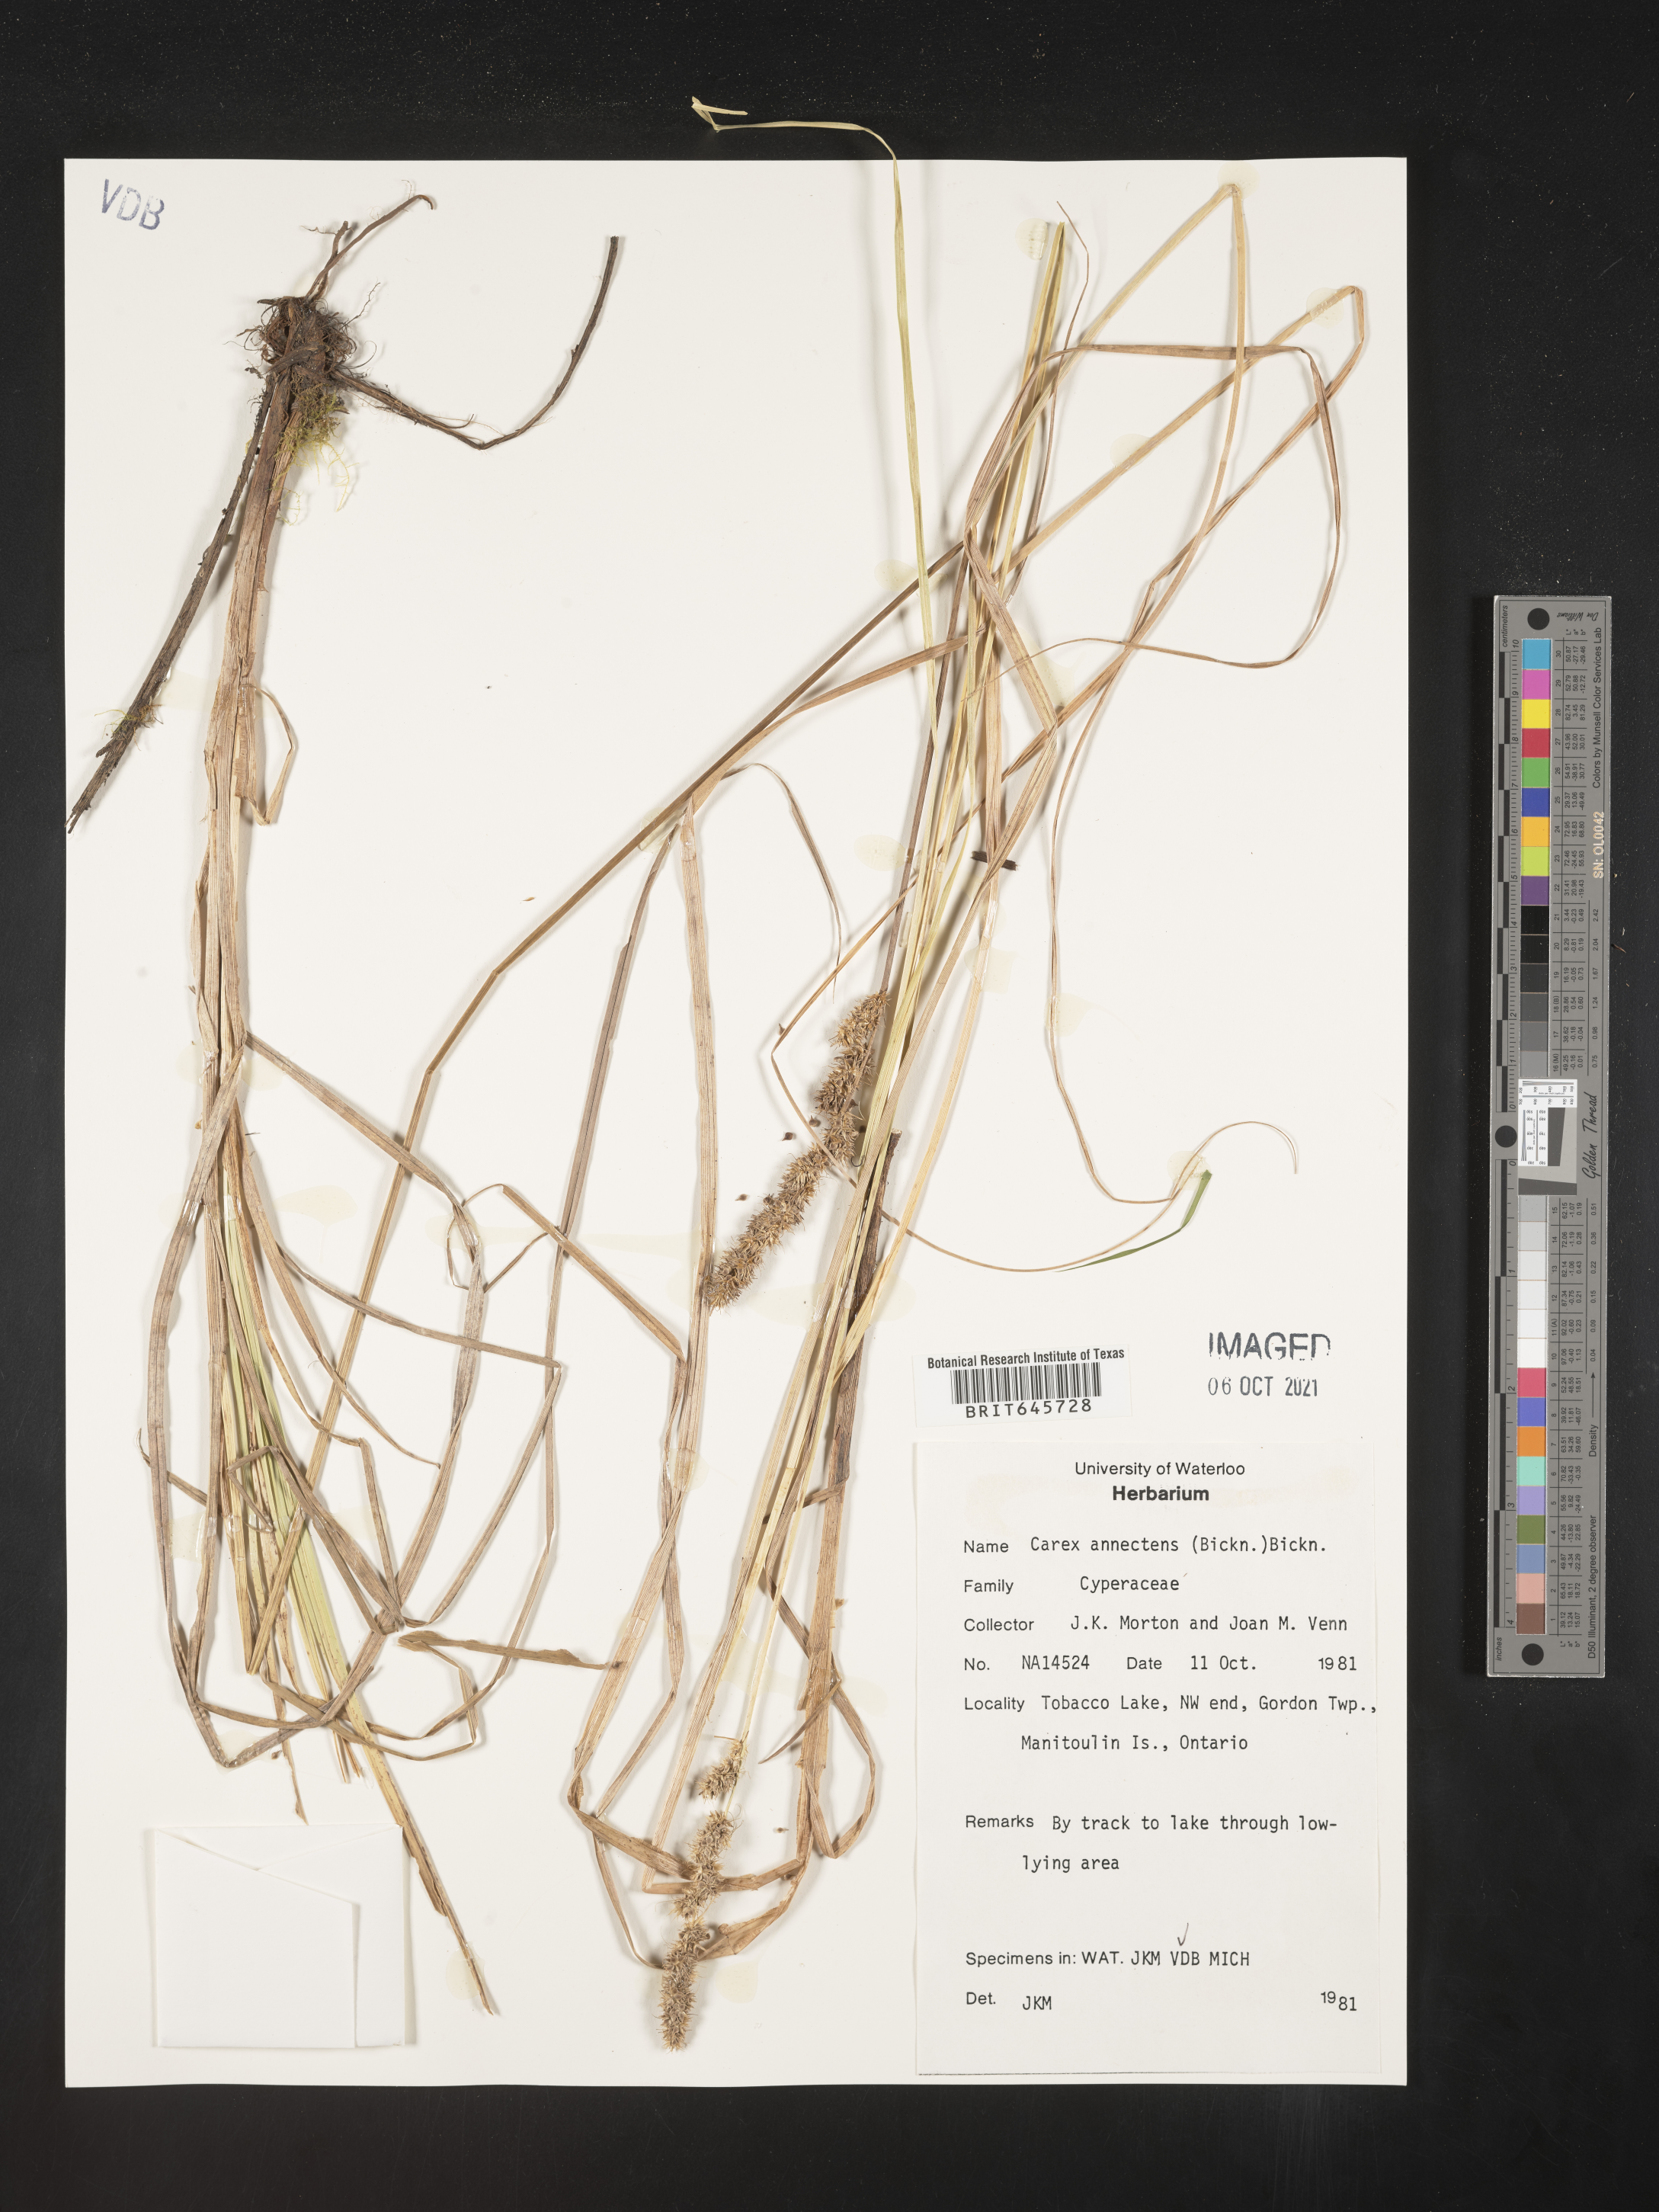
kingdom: Plantae
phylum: Tracheophyta
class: Liliopsida
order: Poales
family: Cyperaceae
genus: Carex
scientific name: Carex annectens
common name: Large fox sedge
